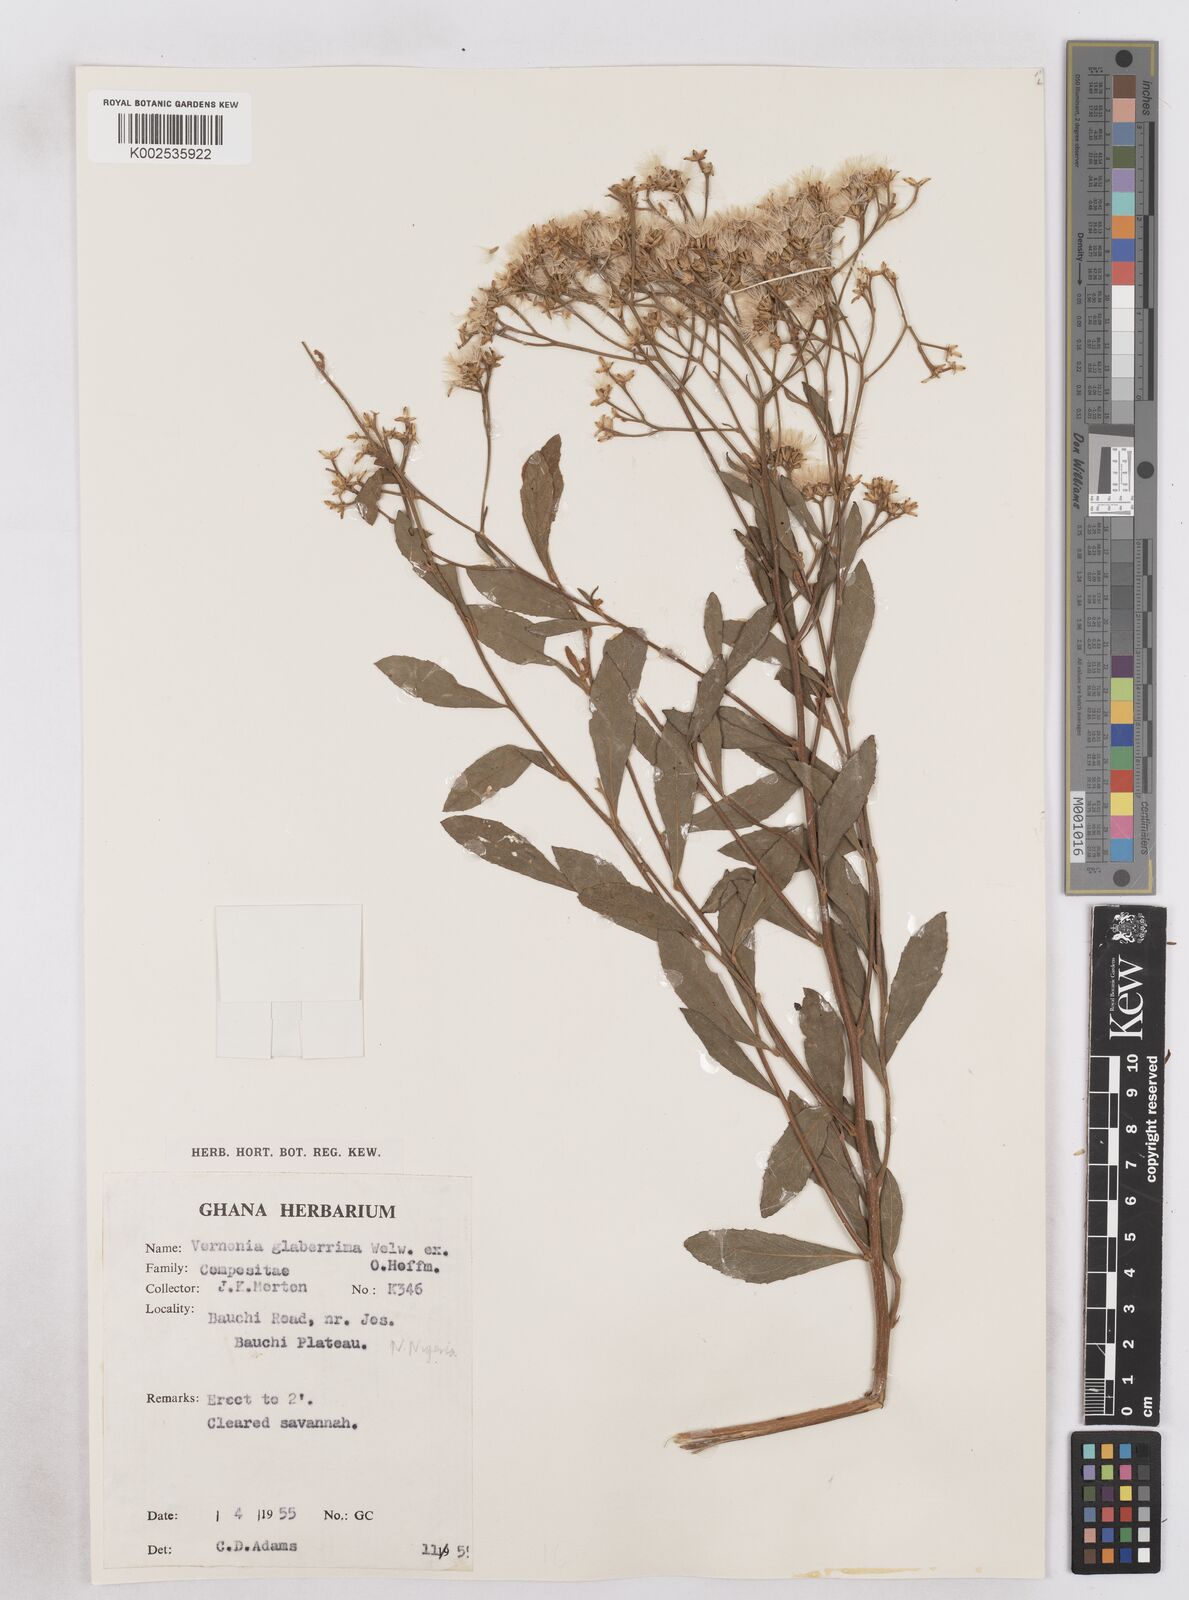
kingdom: Plantae
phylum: Tracheophyta
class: Magnoliopsida
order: Asterales
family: Asteraceae
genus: Gymnanthemum
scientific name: Gymnanthemum glaberrimum
